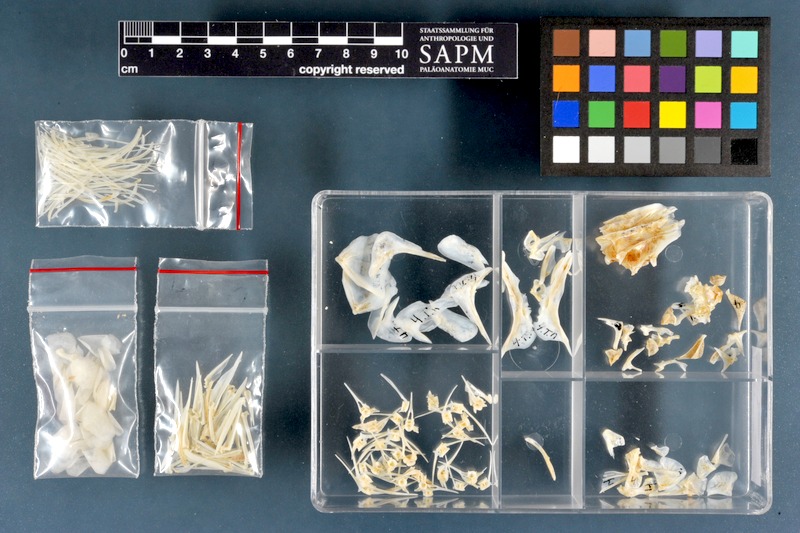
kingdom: Animalia
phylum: Chordata
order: Perciformes
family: Cichlidae
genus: Oreochromis
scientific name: Oreochromis niloticus
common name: Nile tilapia
